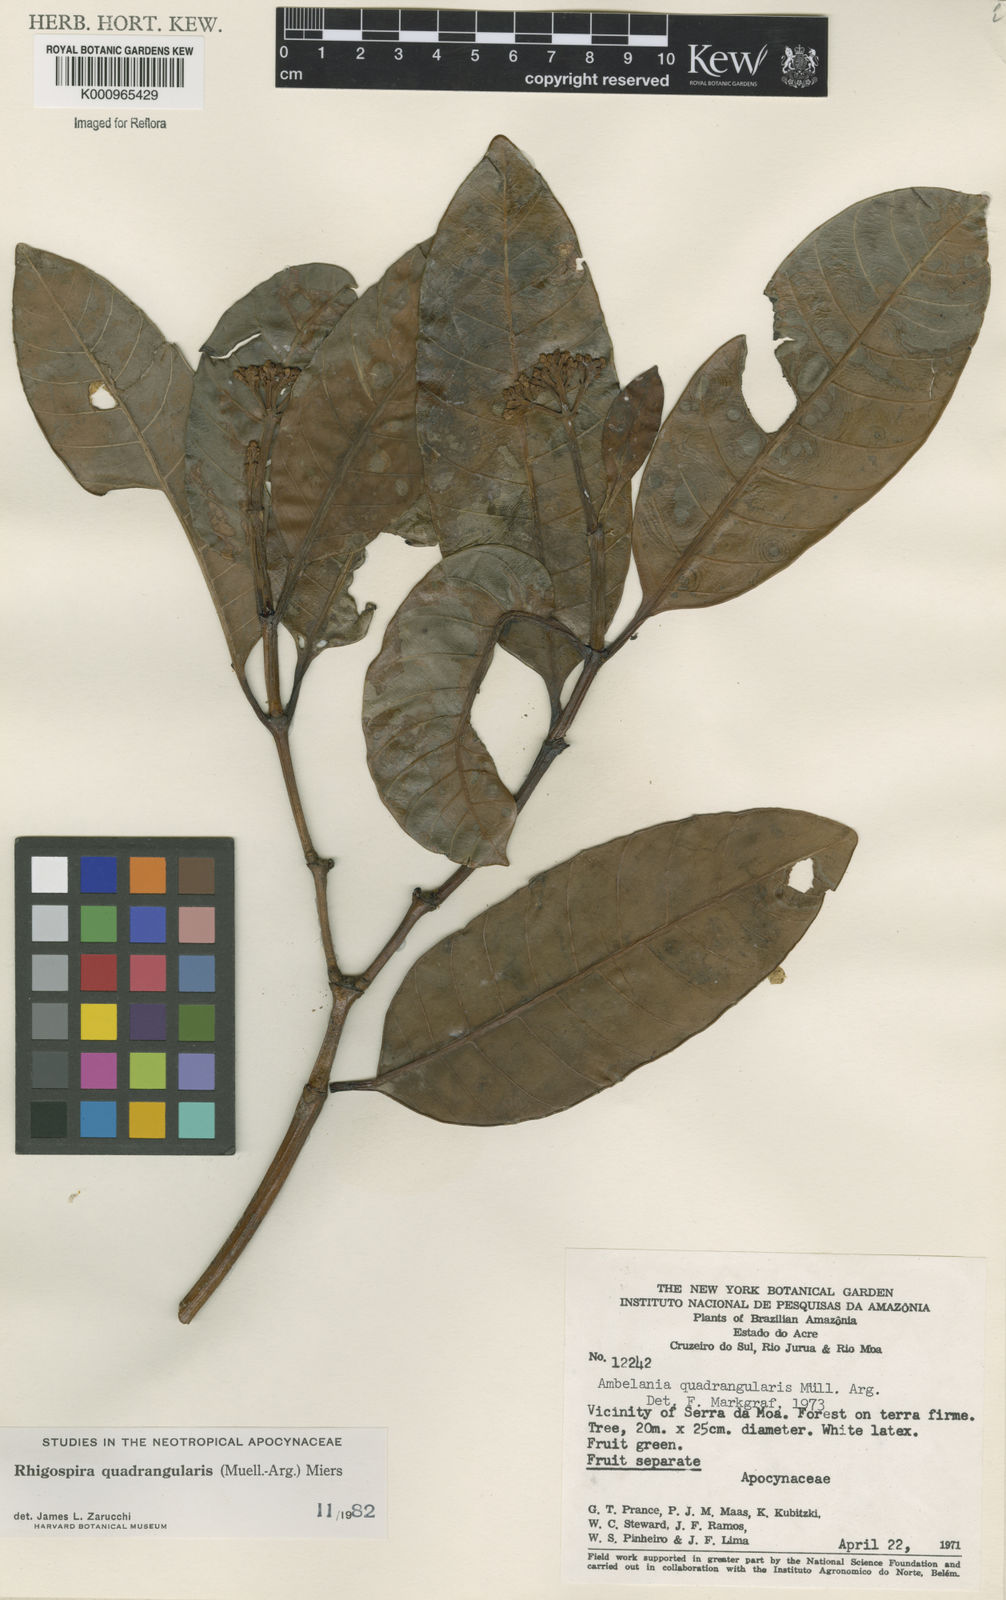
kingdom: Plantae
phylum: Tracheophyta
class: Magnoliopsida
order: Gentianales
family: Apocynaceae
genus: Rhigospira
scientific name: Rhigospira
